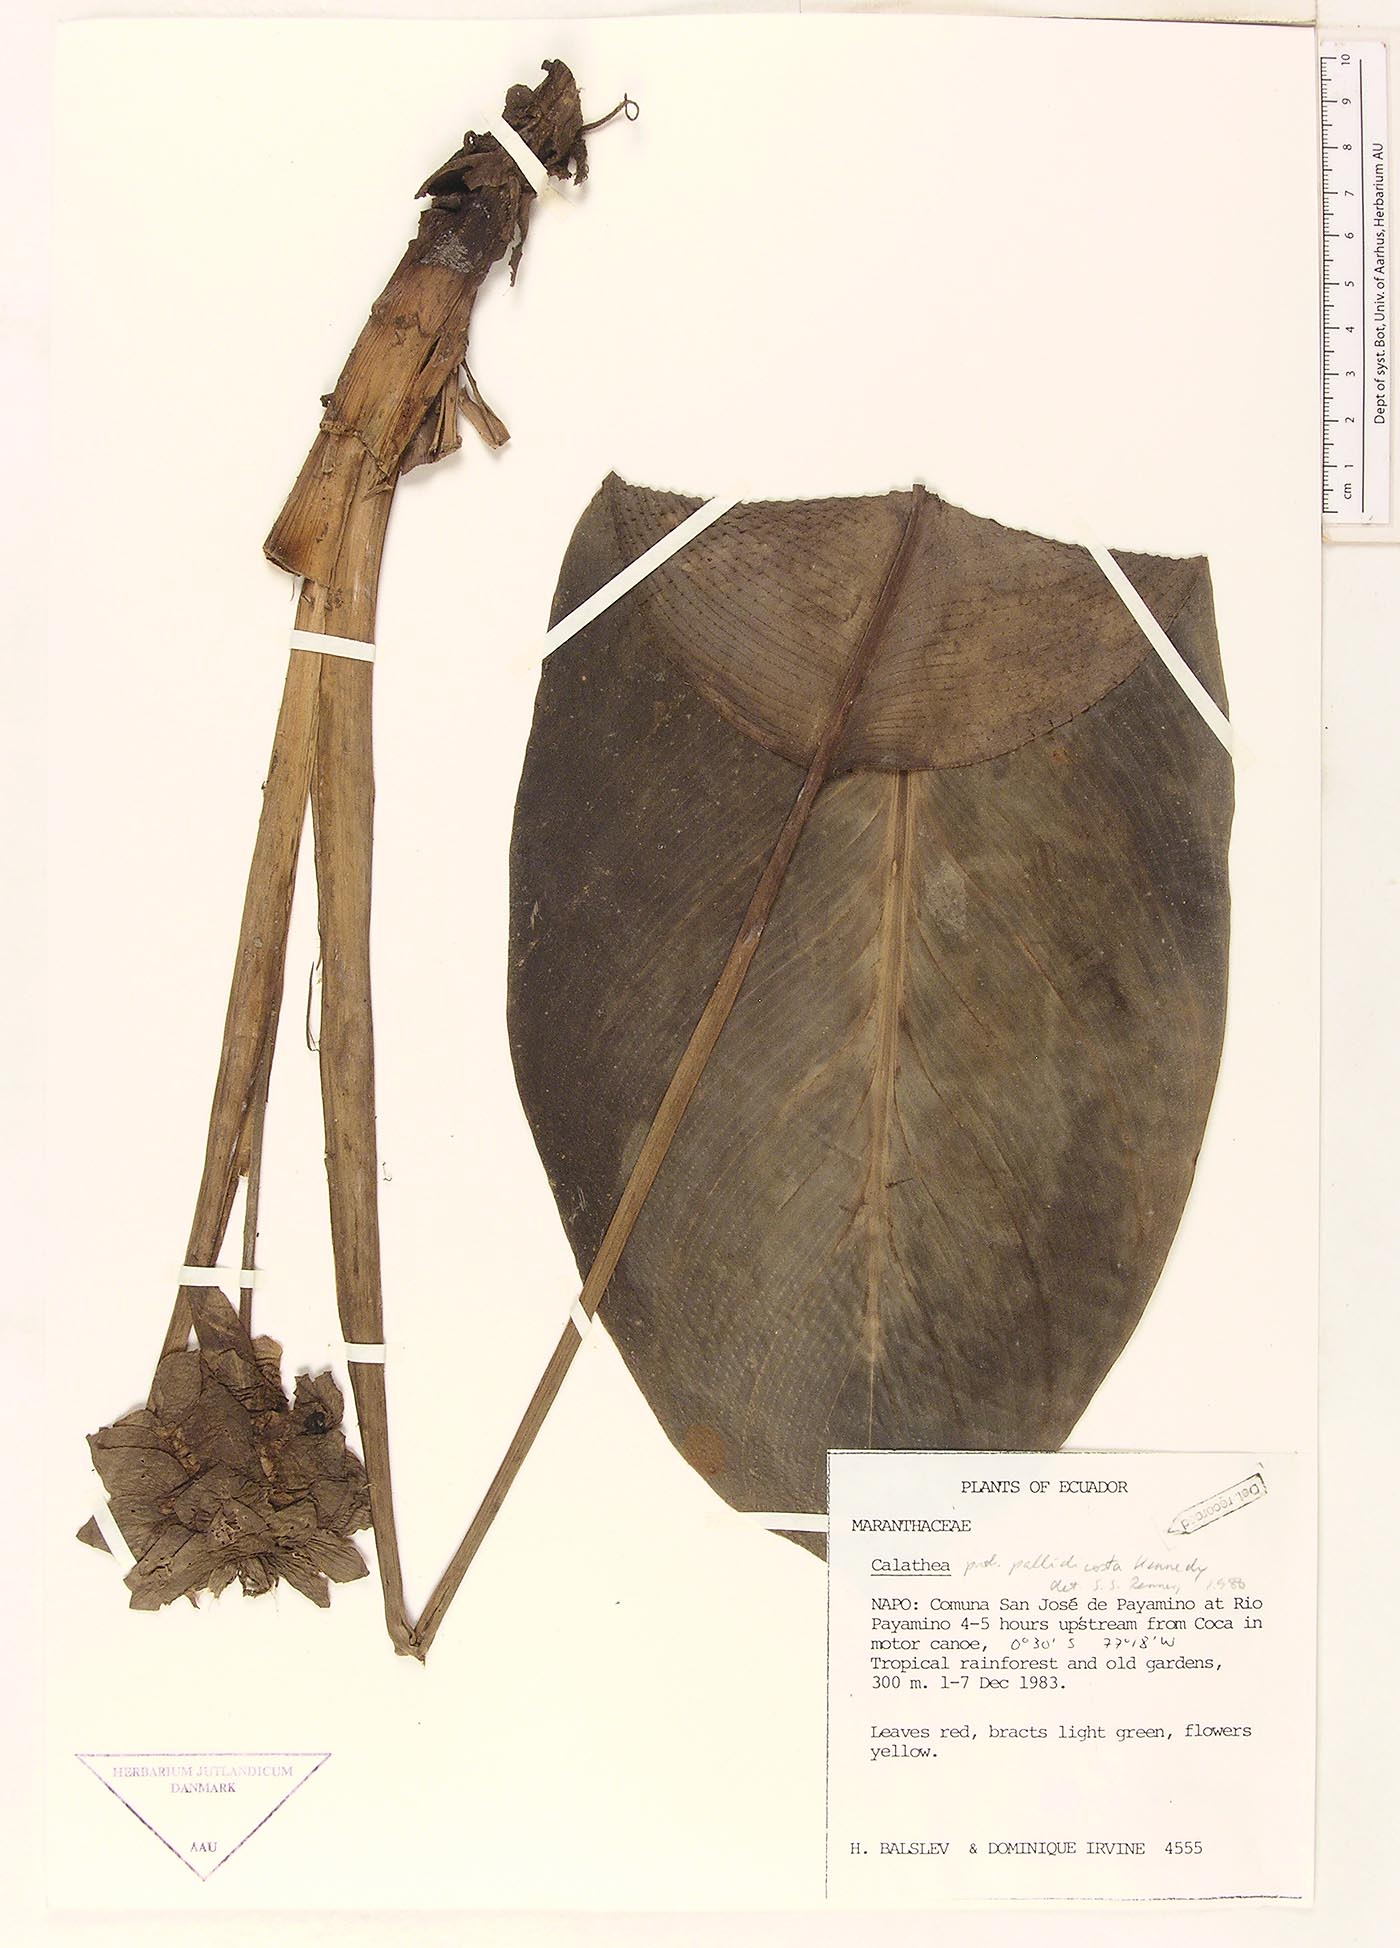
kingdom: Plantae
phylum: Tracheophyta
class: Liliopsida
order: Zingiberales
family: Marantaceae
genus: Goeppertia
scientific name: Goeppertia pallidicosta
